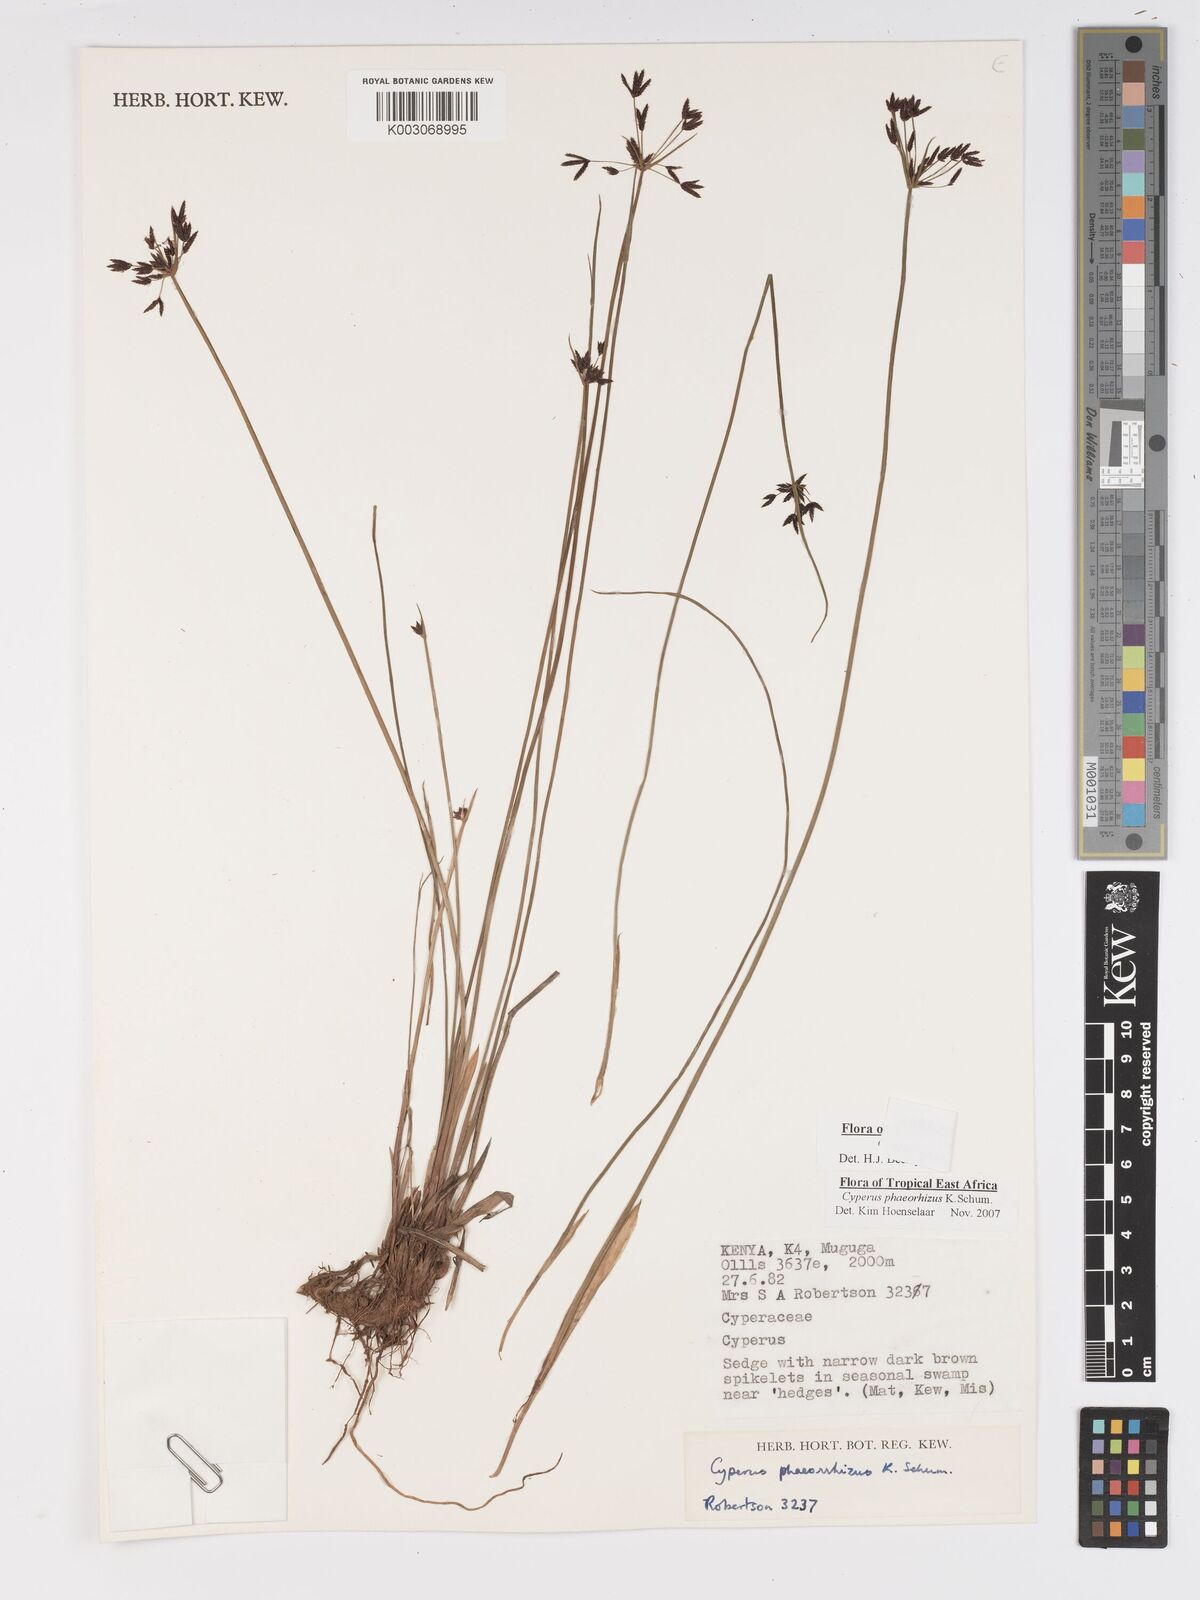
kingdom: Plantae
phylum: Tracheophyta
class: Liliopsida
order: Poales
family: Cyperaceae
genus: Cyperus
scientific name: Cyperus haspan
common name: Haspan flatsedge
